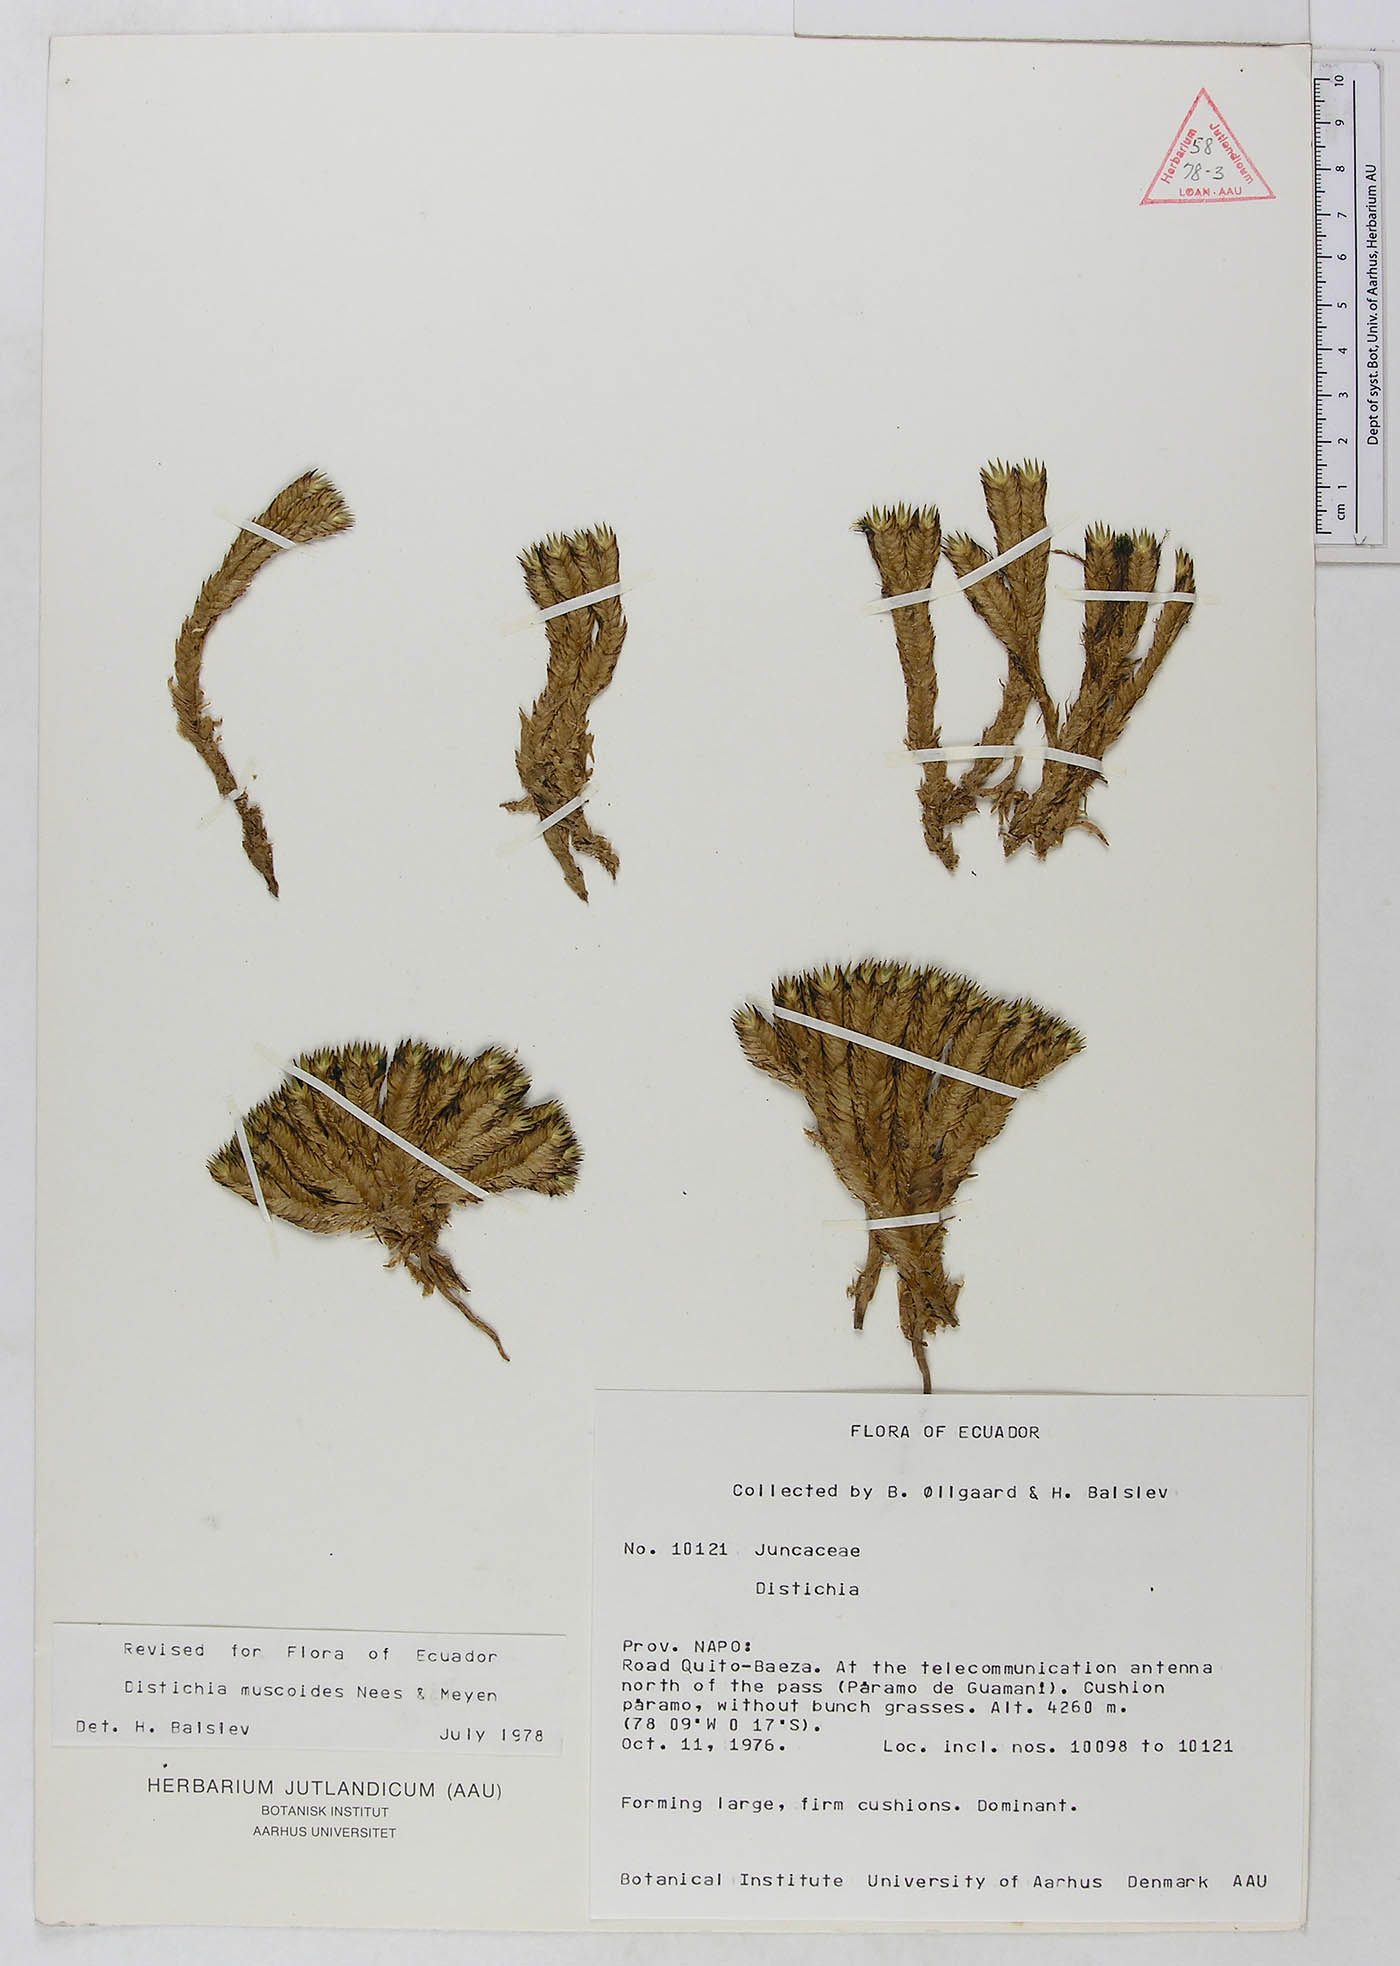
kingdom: Plantae
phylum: Tracheophyta
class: Liliopsida
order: Poales
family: Juncaceae
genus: Distichia
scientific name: Distichia muscoides
